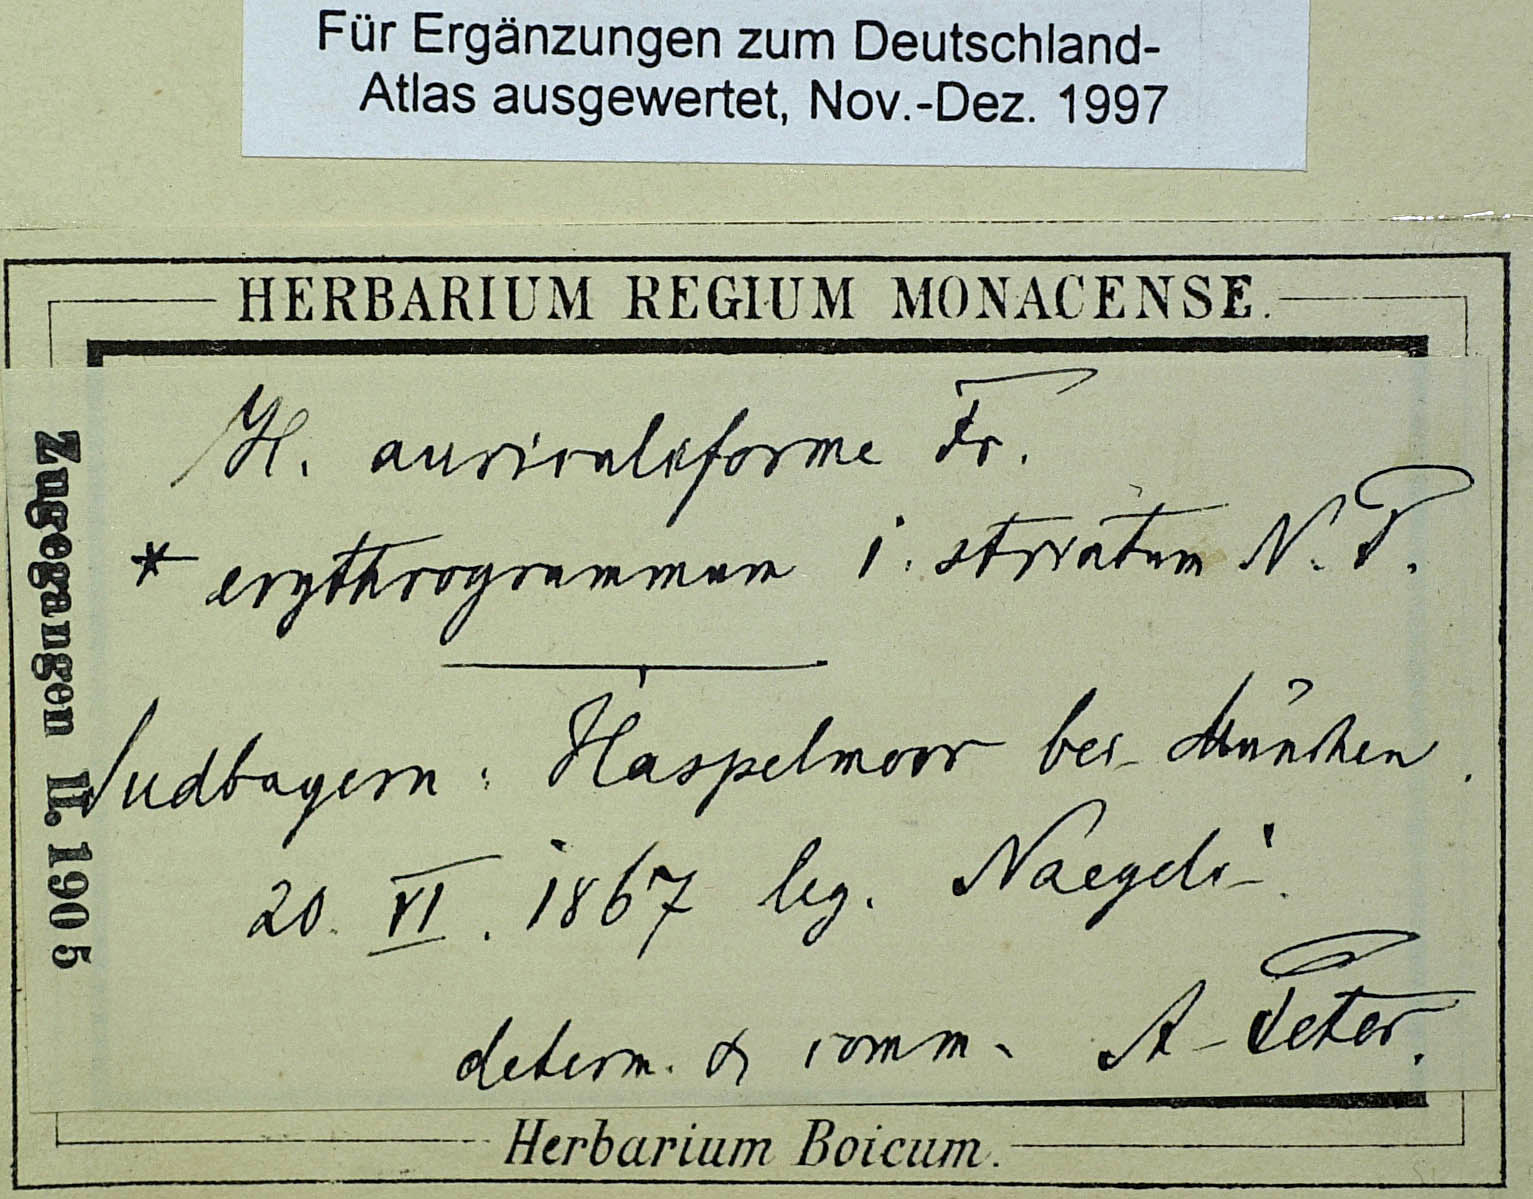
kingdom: Plantae
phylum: Tracheophyta
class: Magnoliopsida
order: Asterales
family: Asteraceae
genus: Pilosella
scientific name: Pilosella auriculiformis
